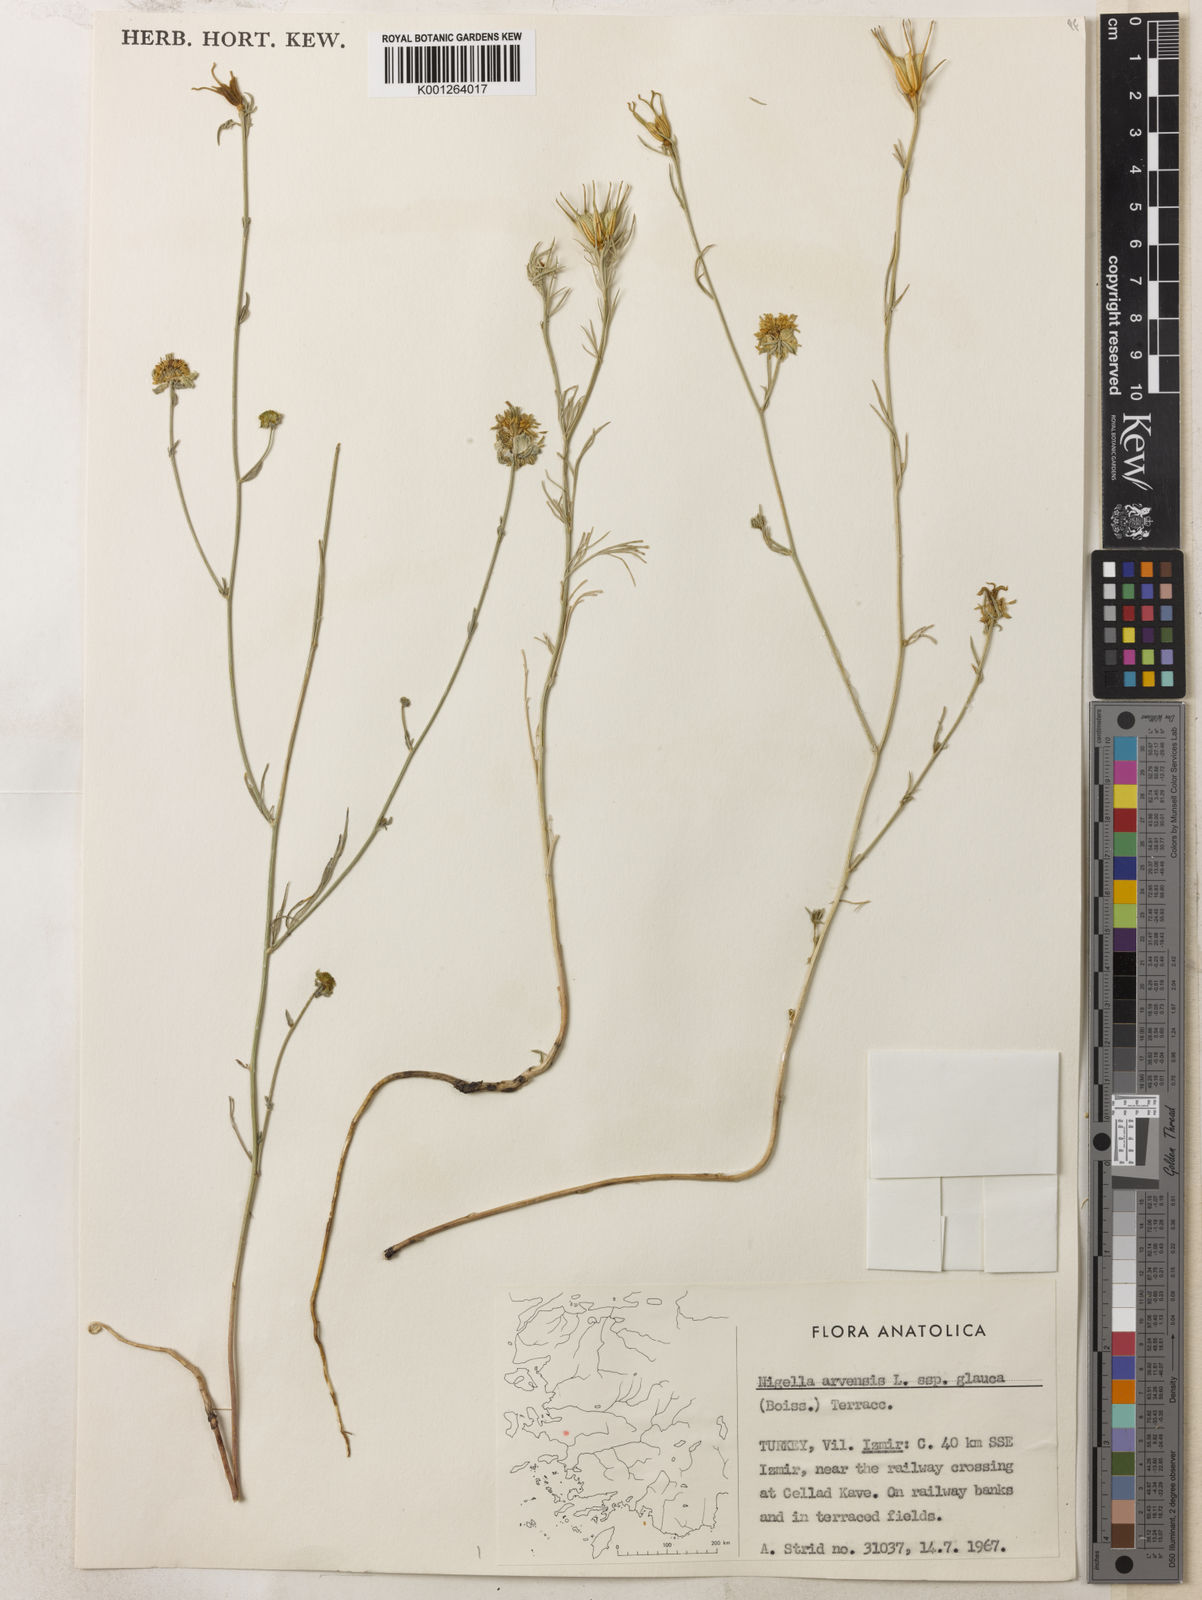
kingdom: Plantae
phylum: Tracheophyta
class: Magnoliopsida
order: Ranunculales
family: Ranunculaceae
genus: Nigella
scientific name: Nigella arvensis
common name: Wild fennel-flower
